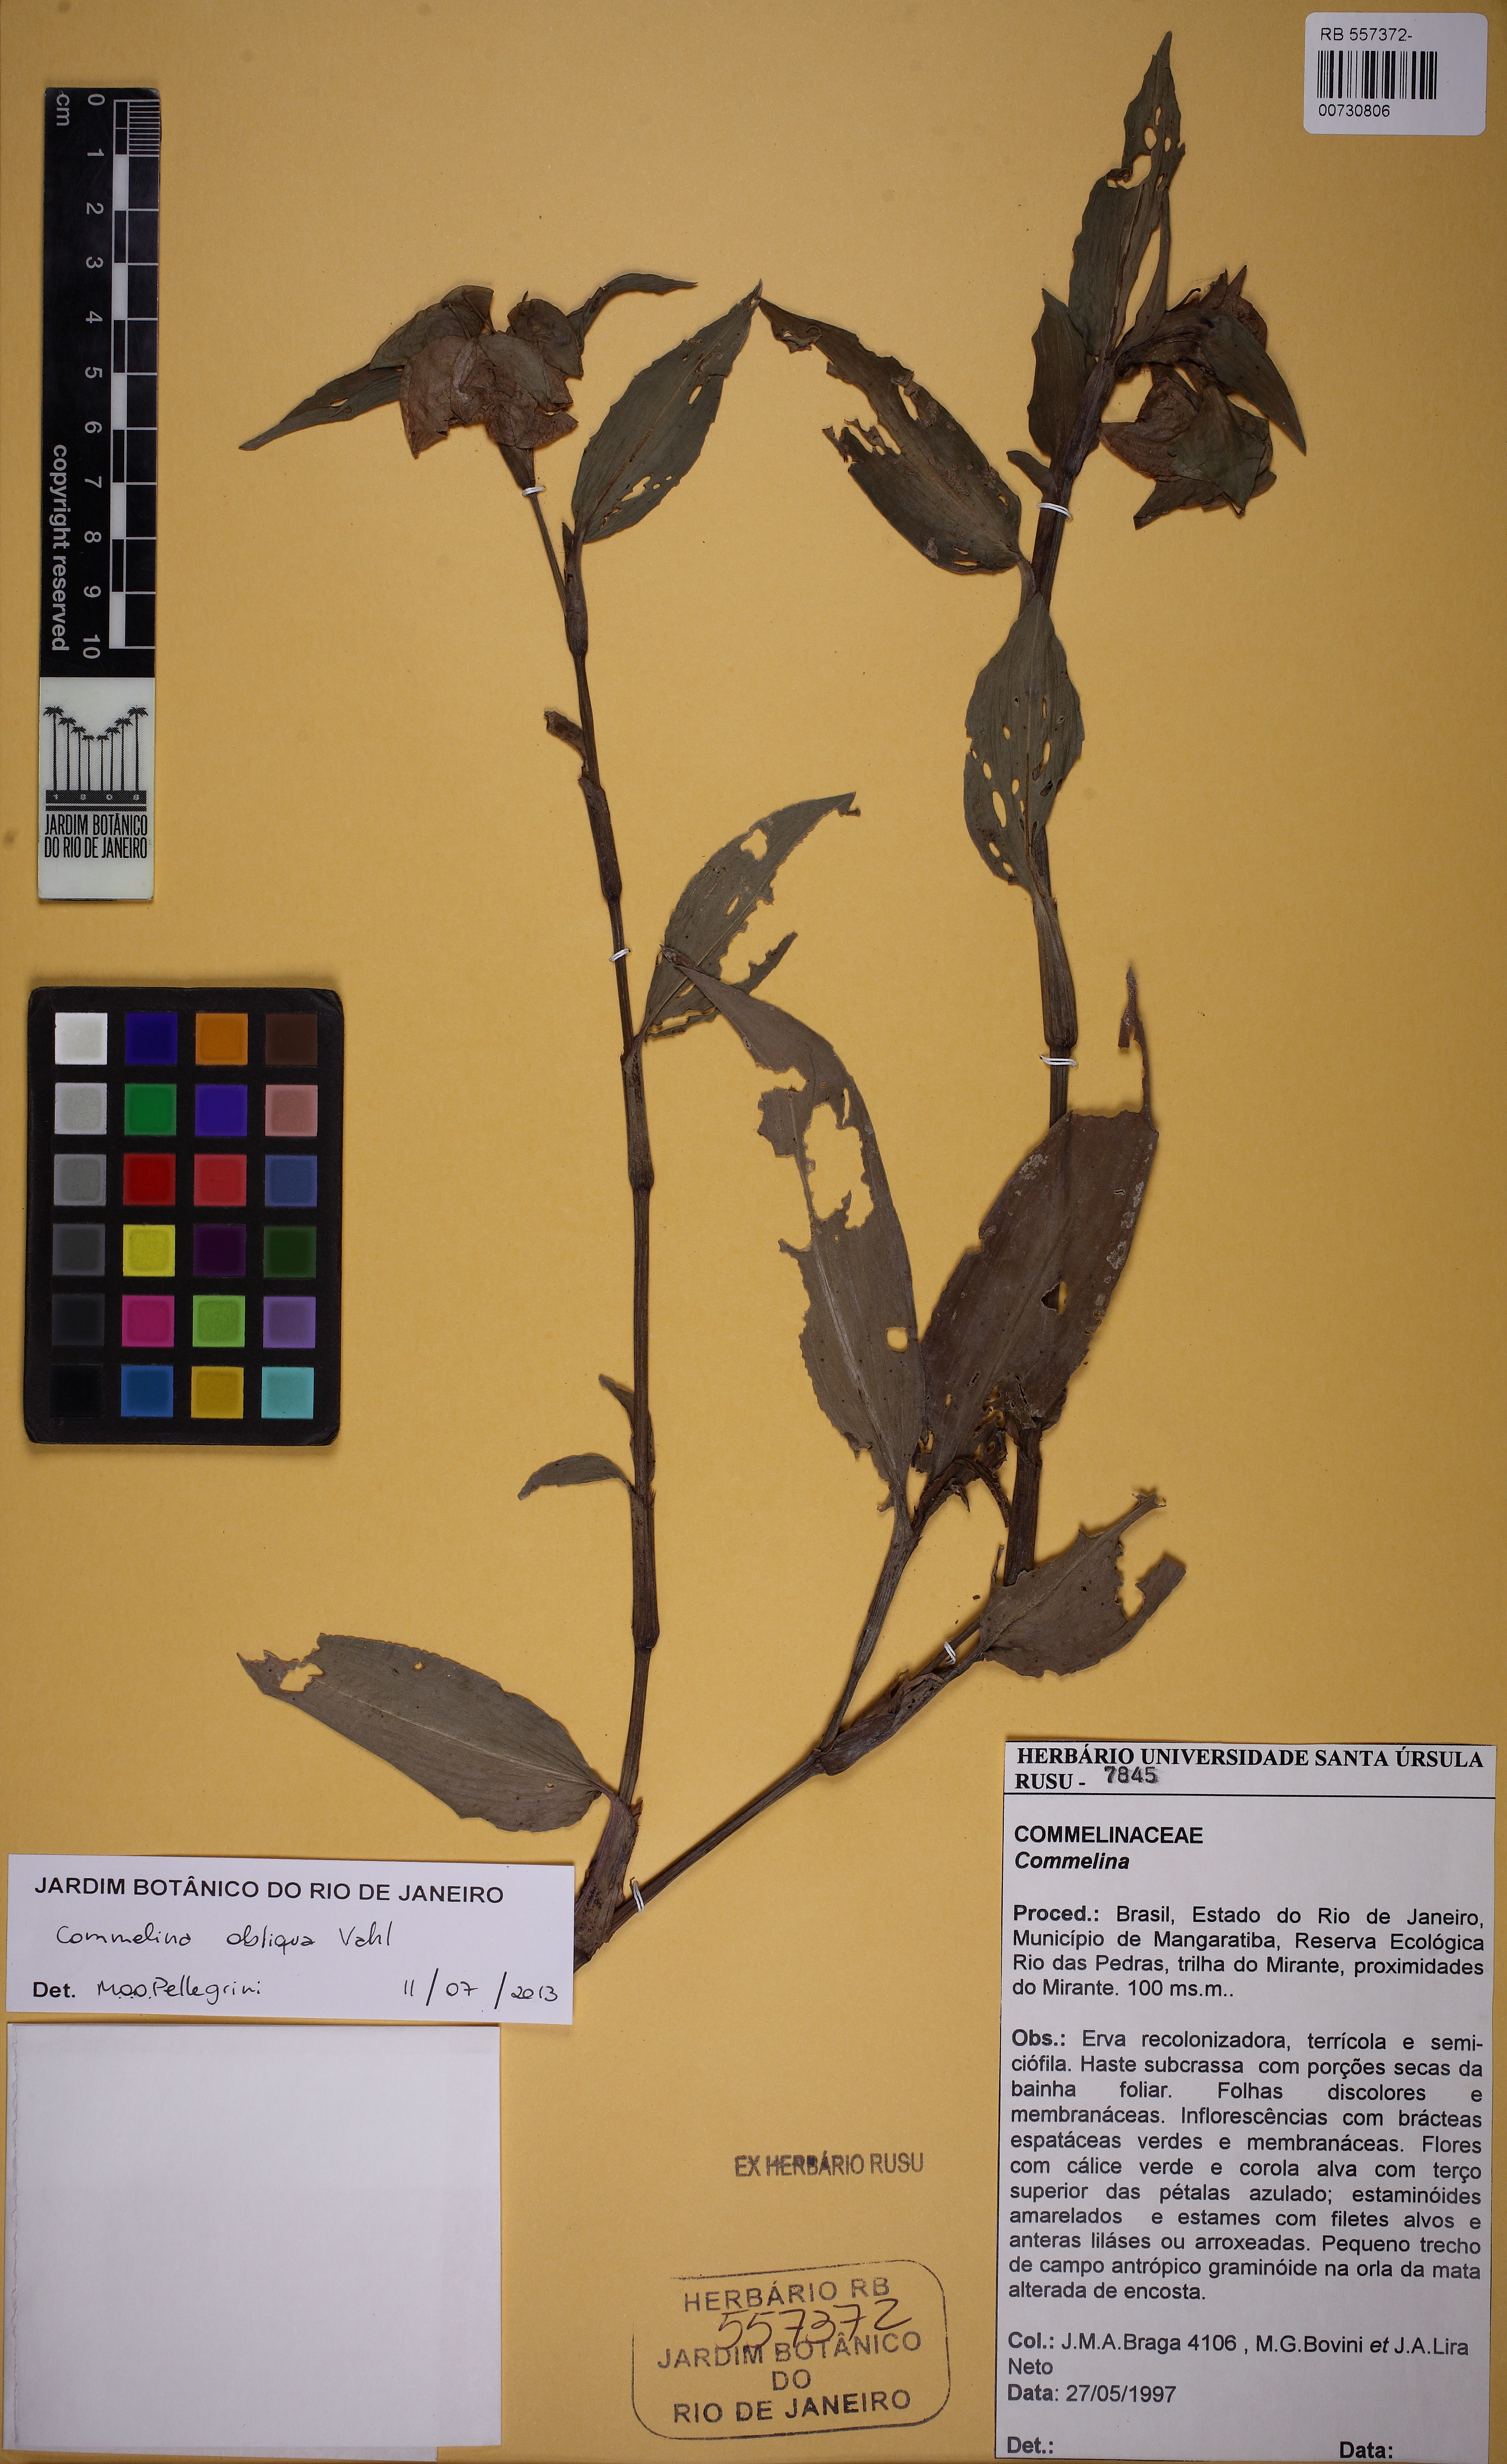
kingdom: Plantae
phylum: Tracheophyta
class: Liliopsida
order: Commelinales
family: Commelinaceae
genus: Commelina
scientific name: Commelina obliqua
